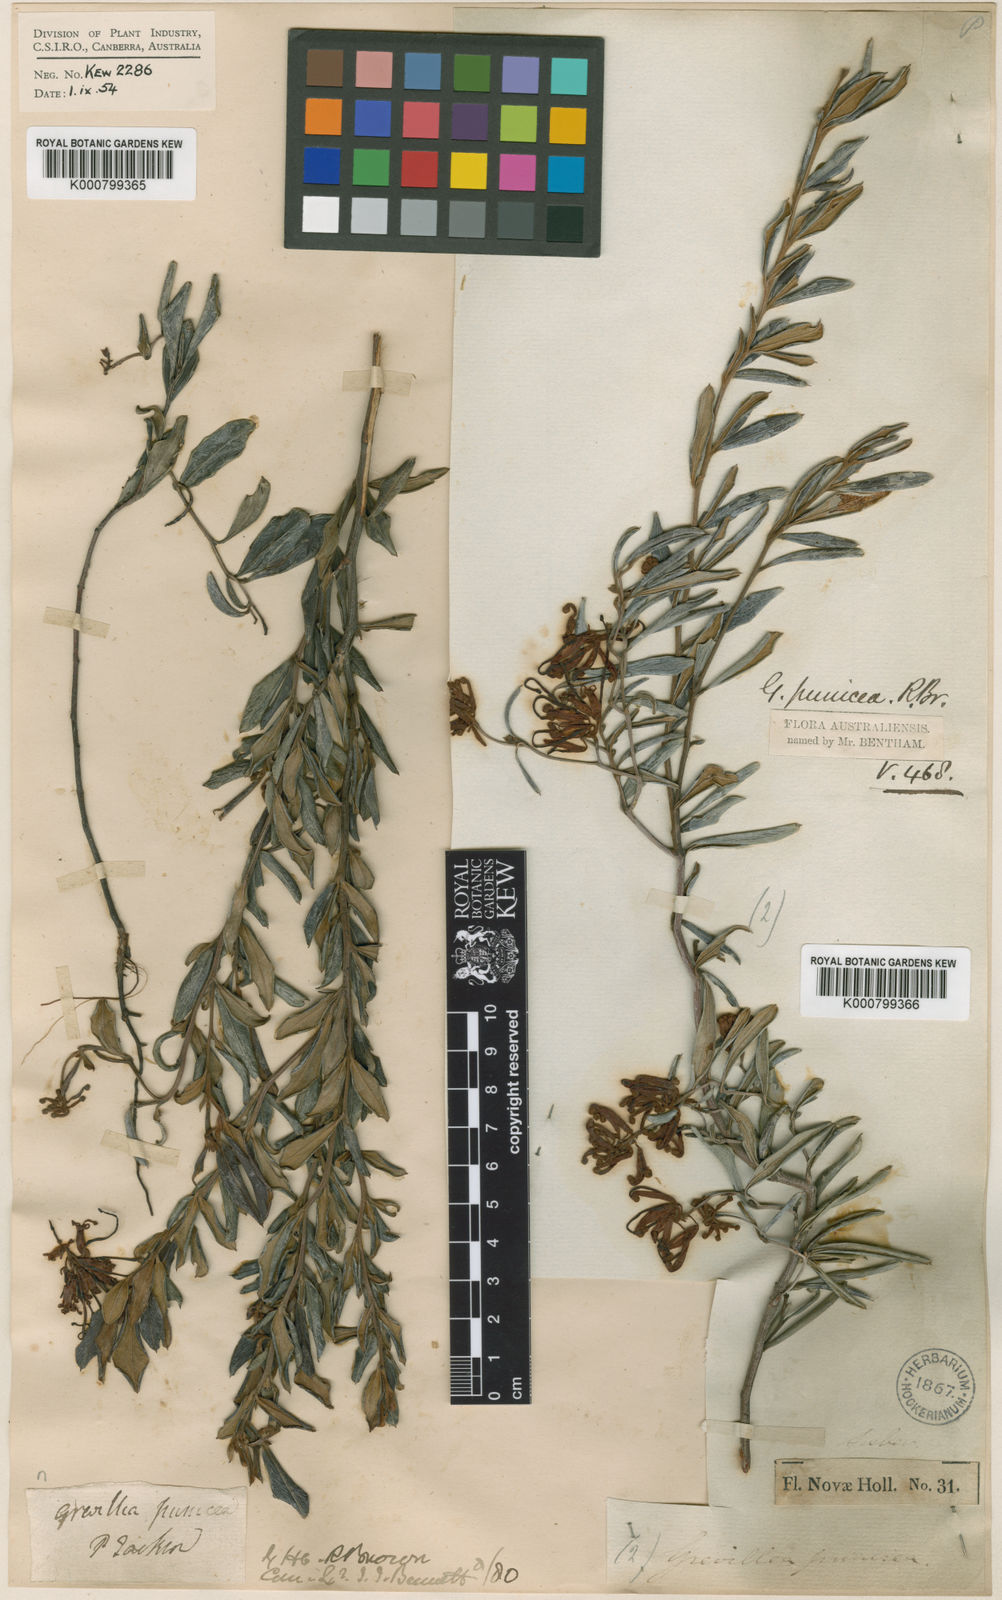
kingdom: Plantae
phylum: Tracheophyta
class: Magnoliopsida
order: Proteales
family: Proteaceae
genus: Grevillea
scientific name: Grevillea speciosa
